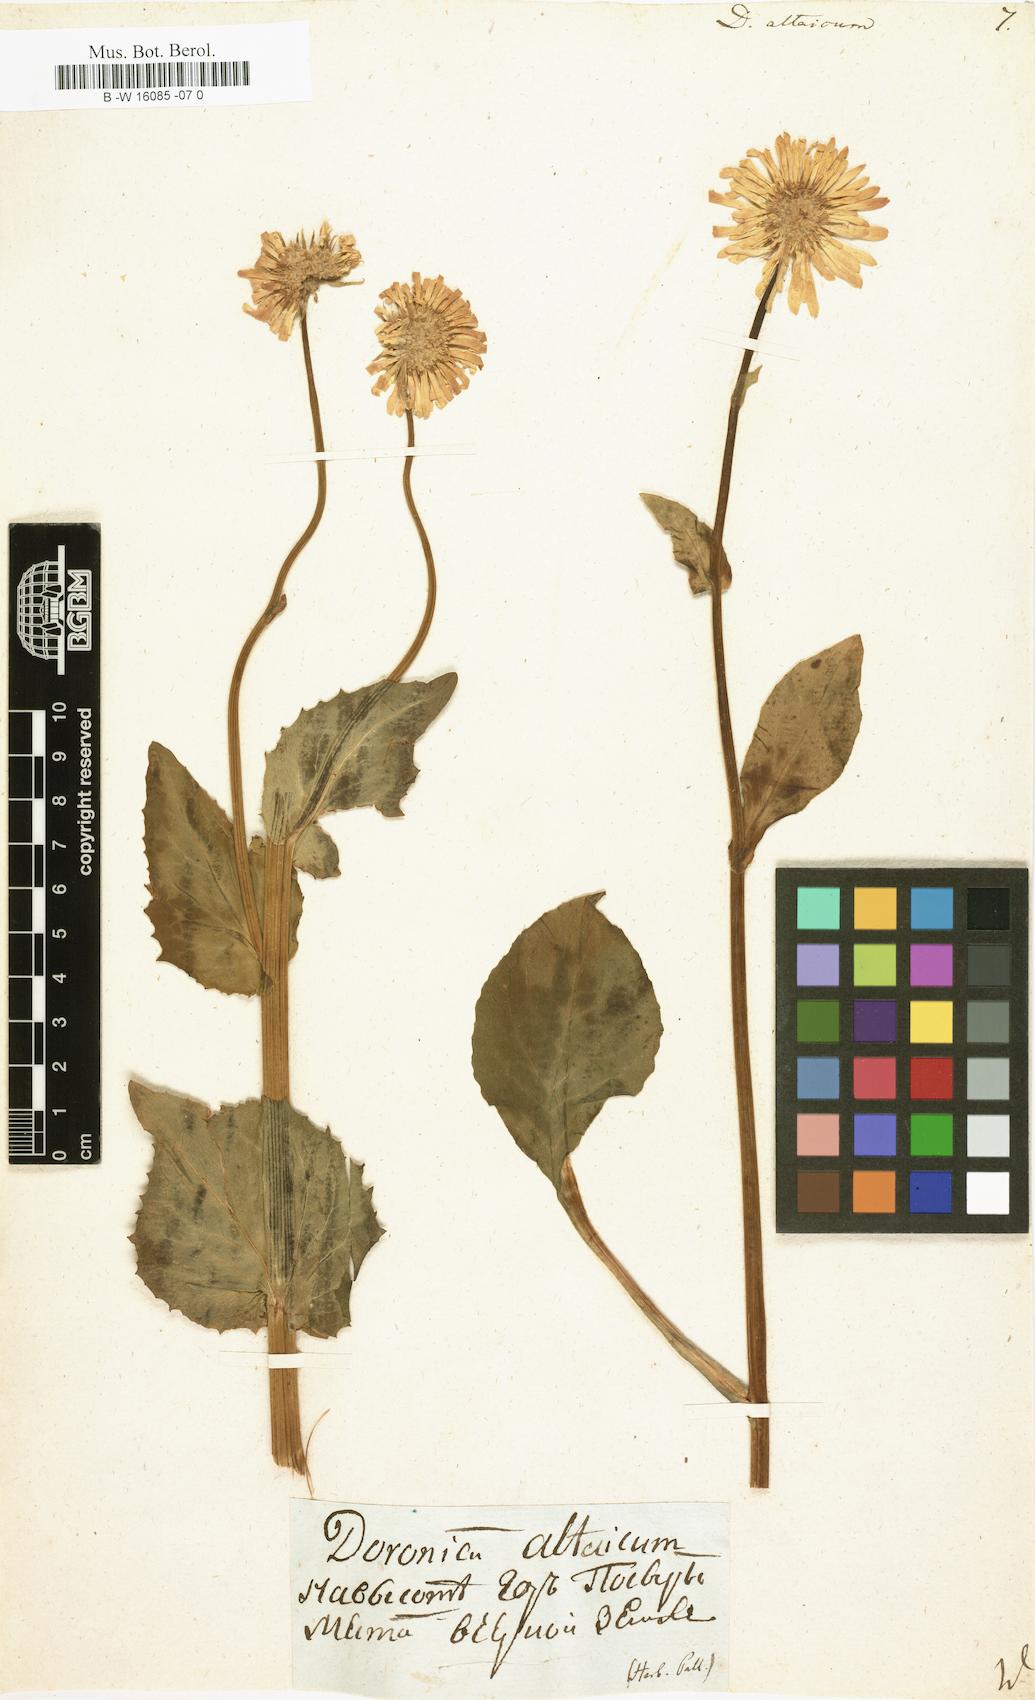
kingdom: Plantae
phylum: Tracheophyta
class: Magnoliopsida
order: Asterales
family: Asteraceae
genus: Doronicum
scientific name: Doronicum altaicum
